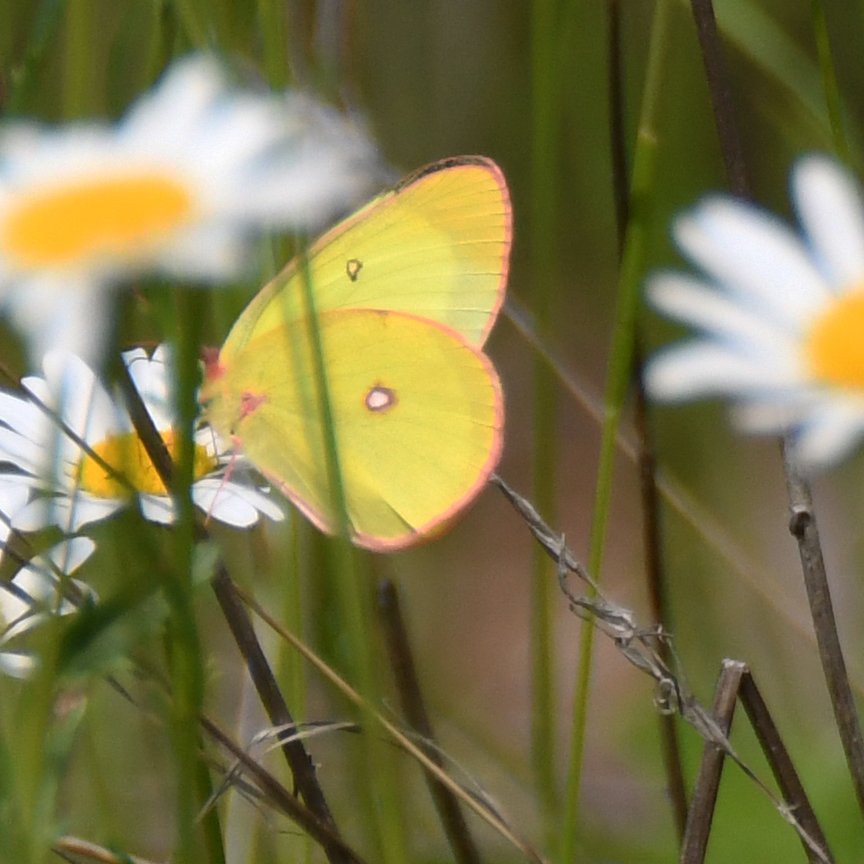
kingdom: Animalia
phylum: Arthropoda
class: Insecta
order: Lepidoptera
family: Pieridae
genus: Colias
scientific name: Colias interior
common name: Pink-edged Sulphur
